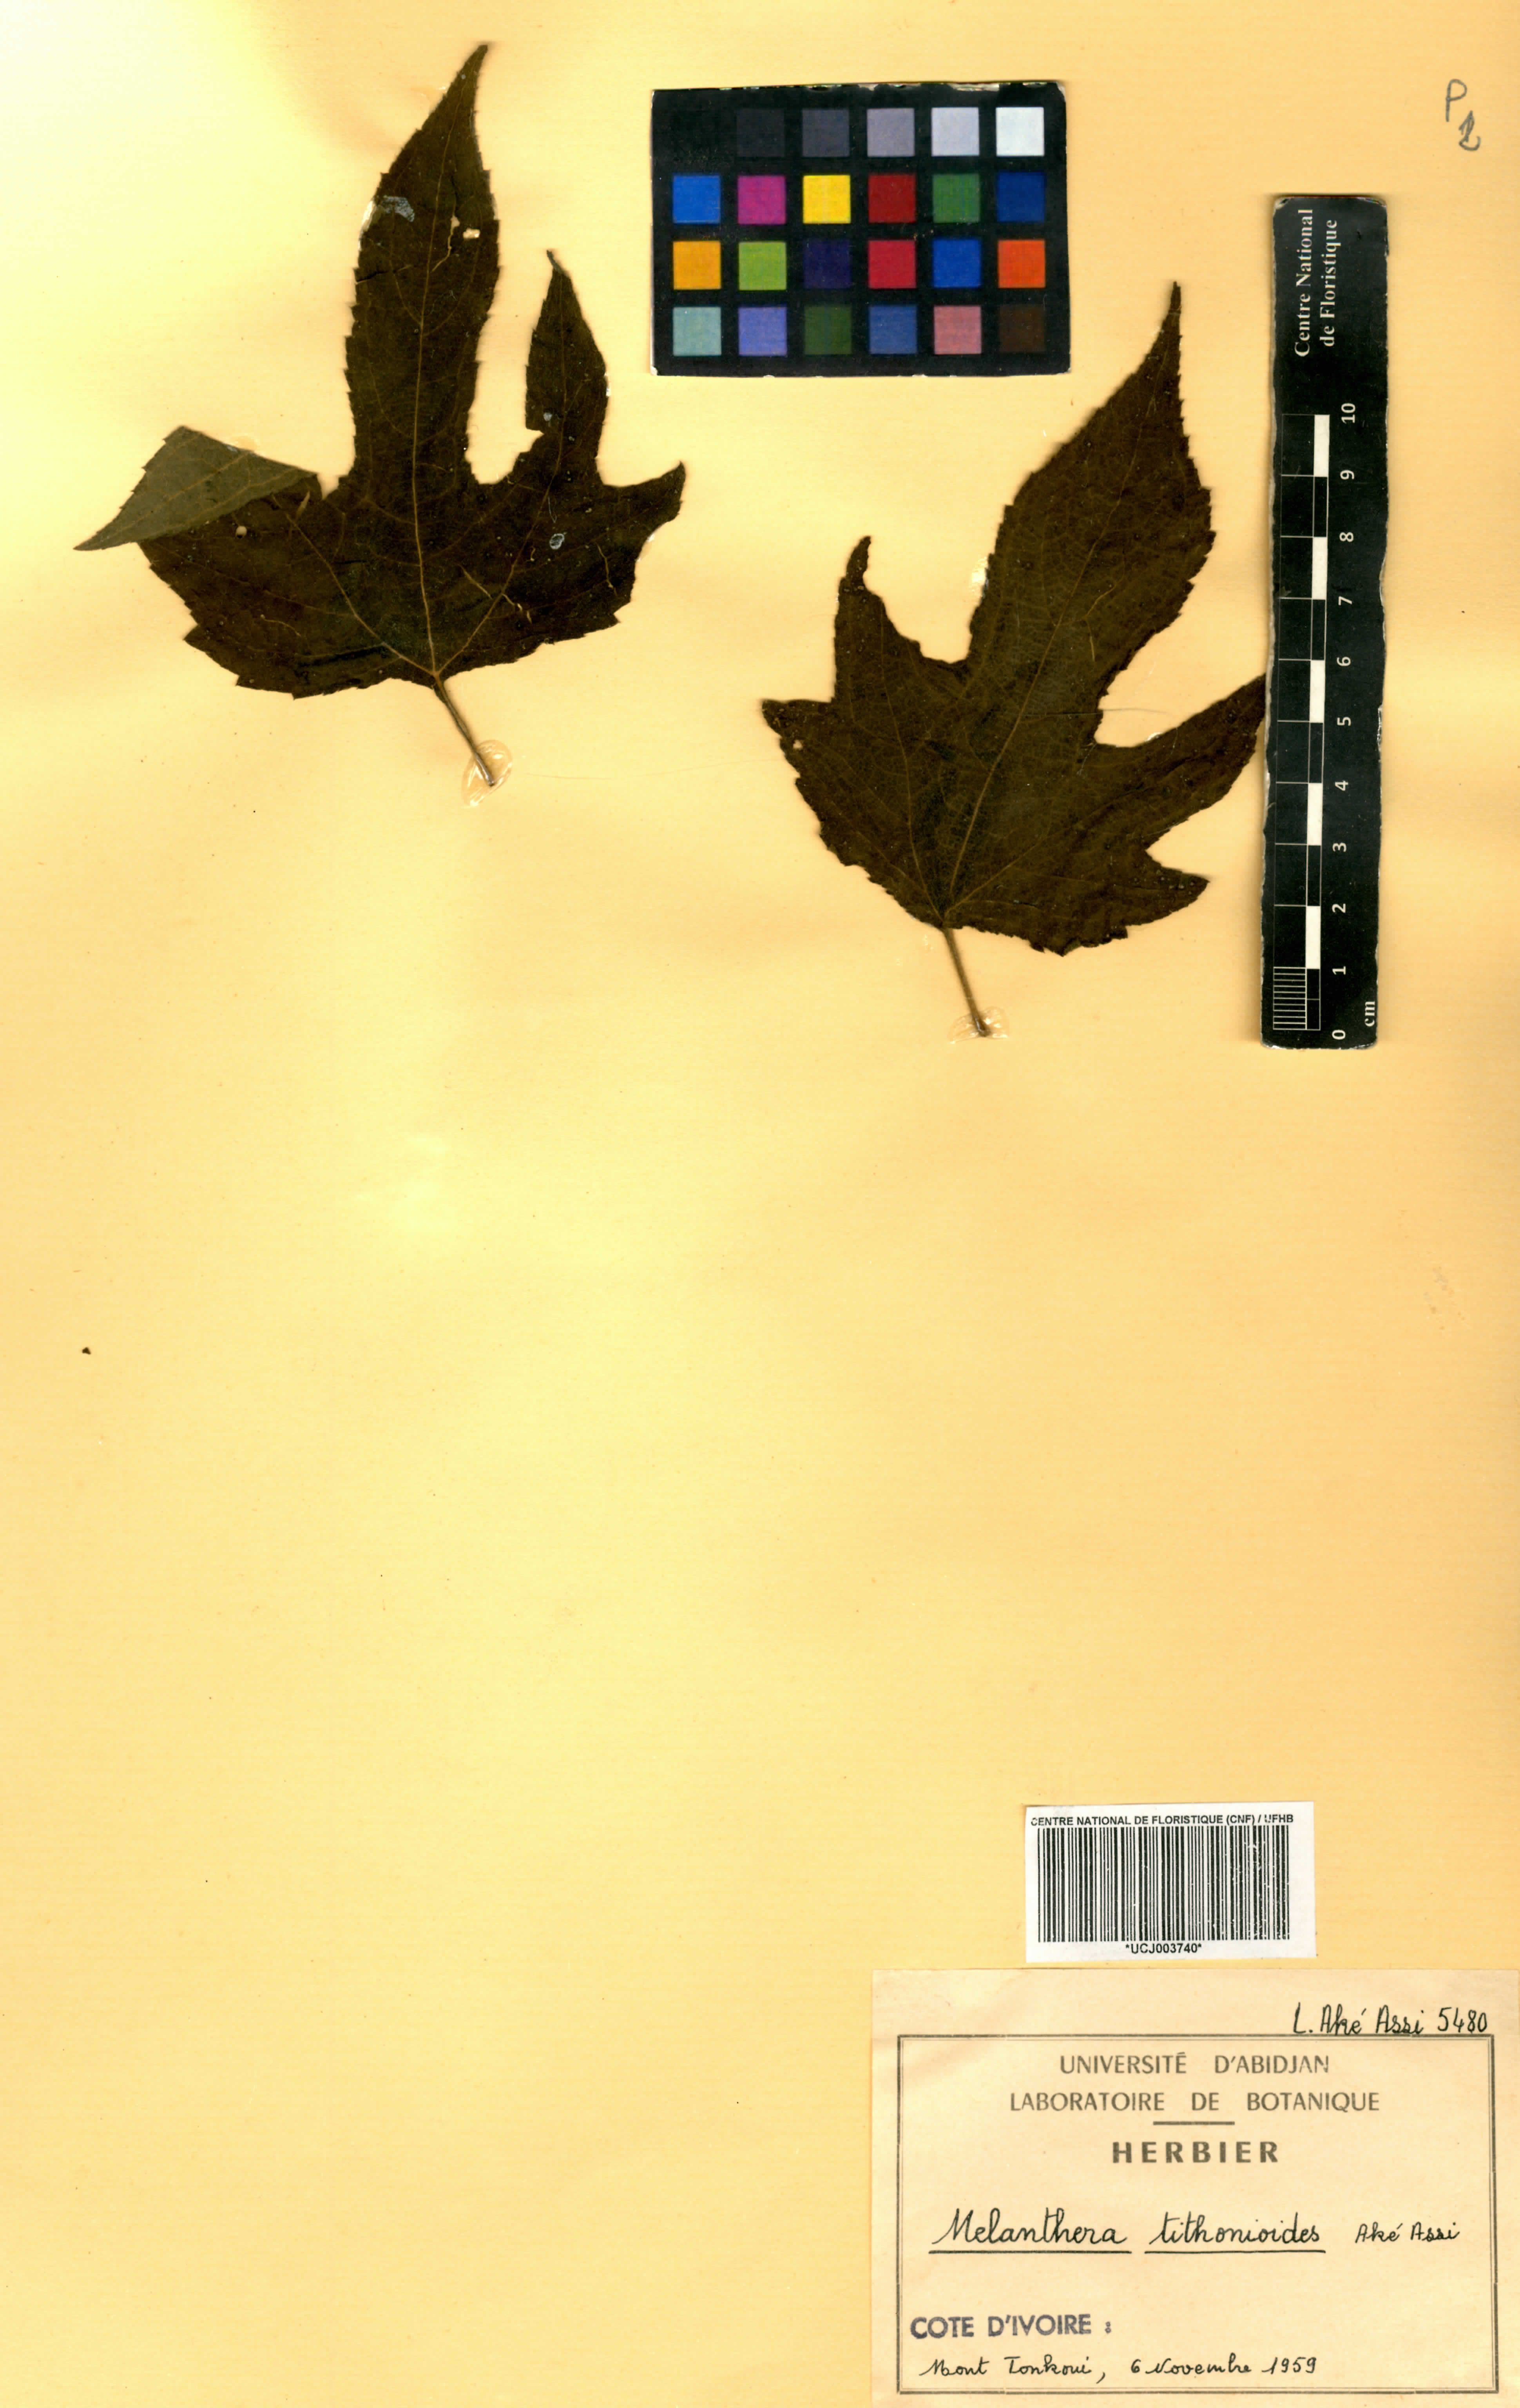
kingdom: Plantae
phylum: Tracheophyta
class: Magnoliopsida
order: Asterales
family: Asteraceae
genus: Lipotriche
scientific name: Lipotriche tithonioides
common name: Simandou daisy
